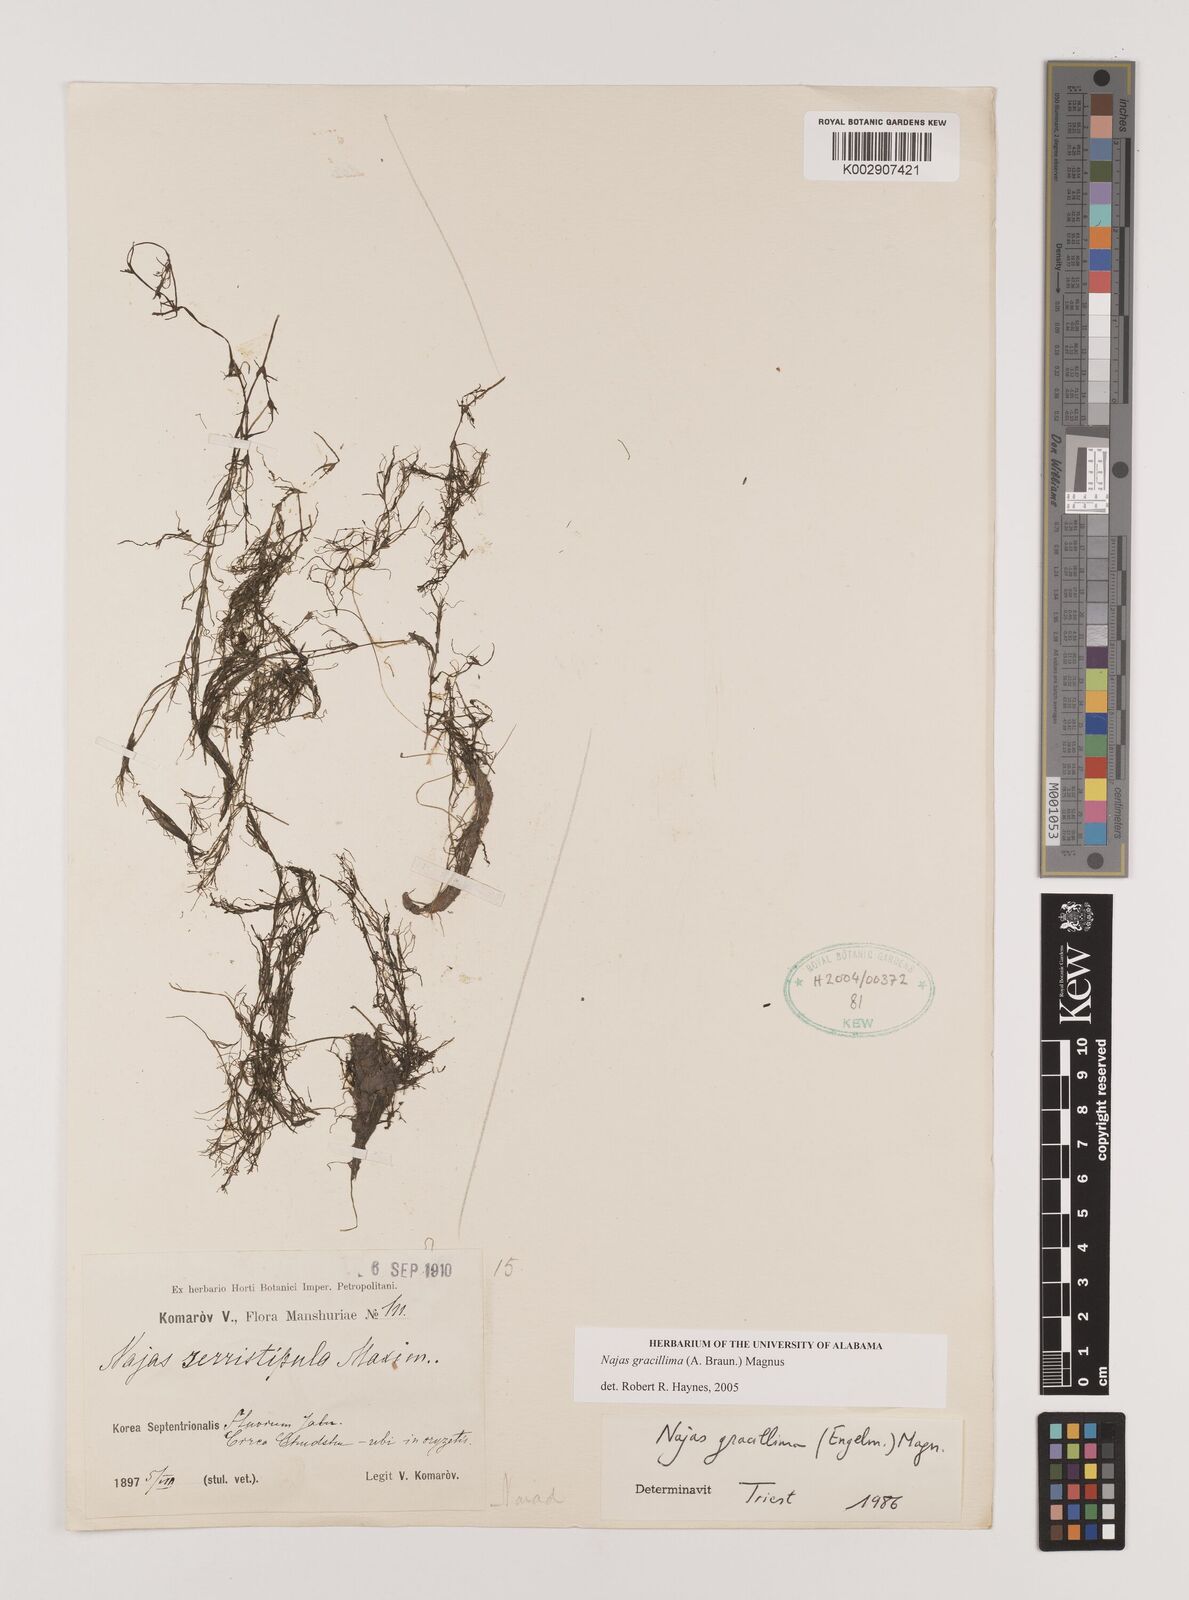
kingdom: Plantae
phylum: Tracheophyta
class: Liliopsida
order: Alismatales
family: Hydrocharitaceae
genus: Najas
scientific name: Najas gracillima
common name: Slender water-nymph
